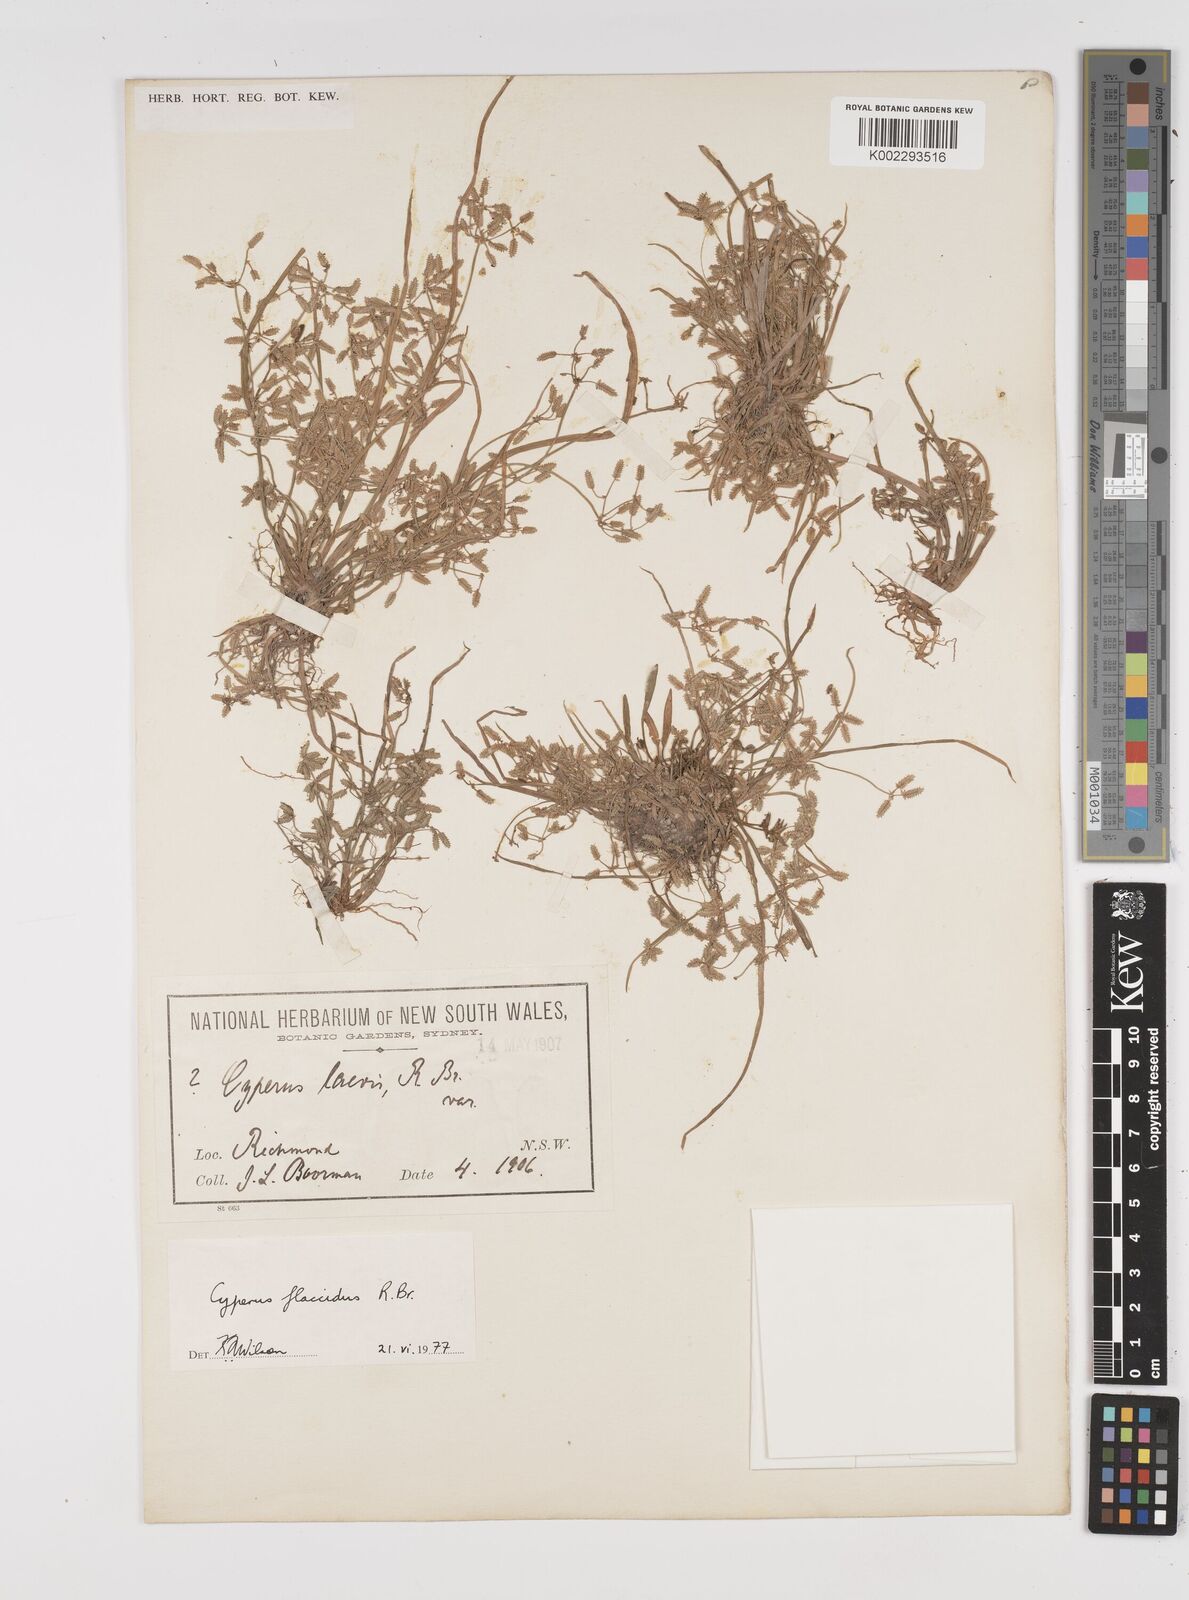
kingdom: Plantae
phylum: Tracheophyta
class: Liliopsida
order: Poales
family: Cyperaceae
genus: Cyperus
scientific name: Cyperus flaccidus
